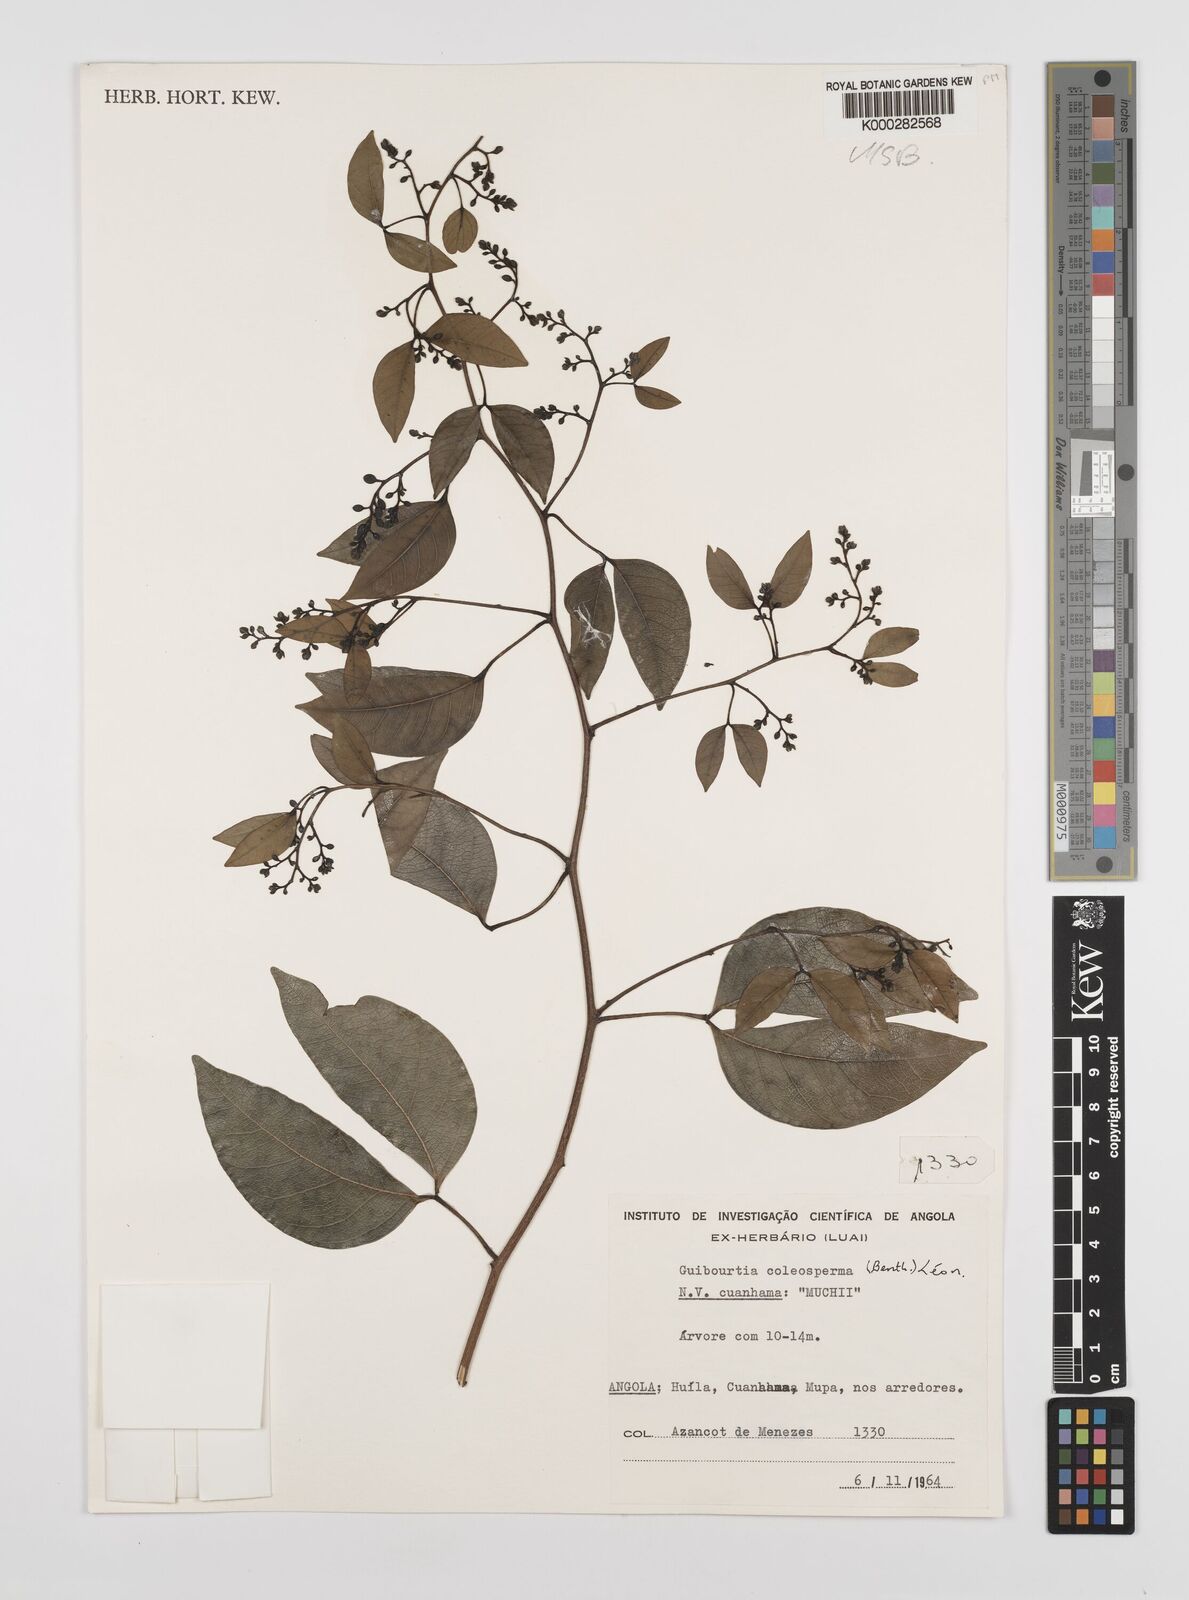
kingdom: Plantae
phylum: Tracheophyta
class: Magnoliopsida
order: Fabales
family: Fabaceae
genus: Guibourtia
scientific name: Guibourtia coleosperma
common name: African rosewoood
